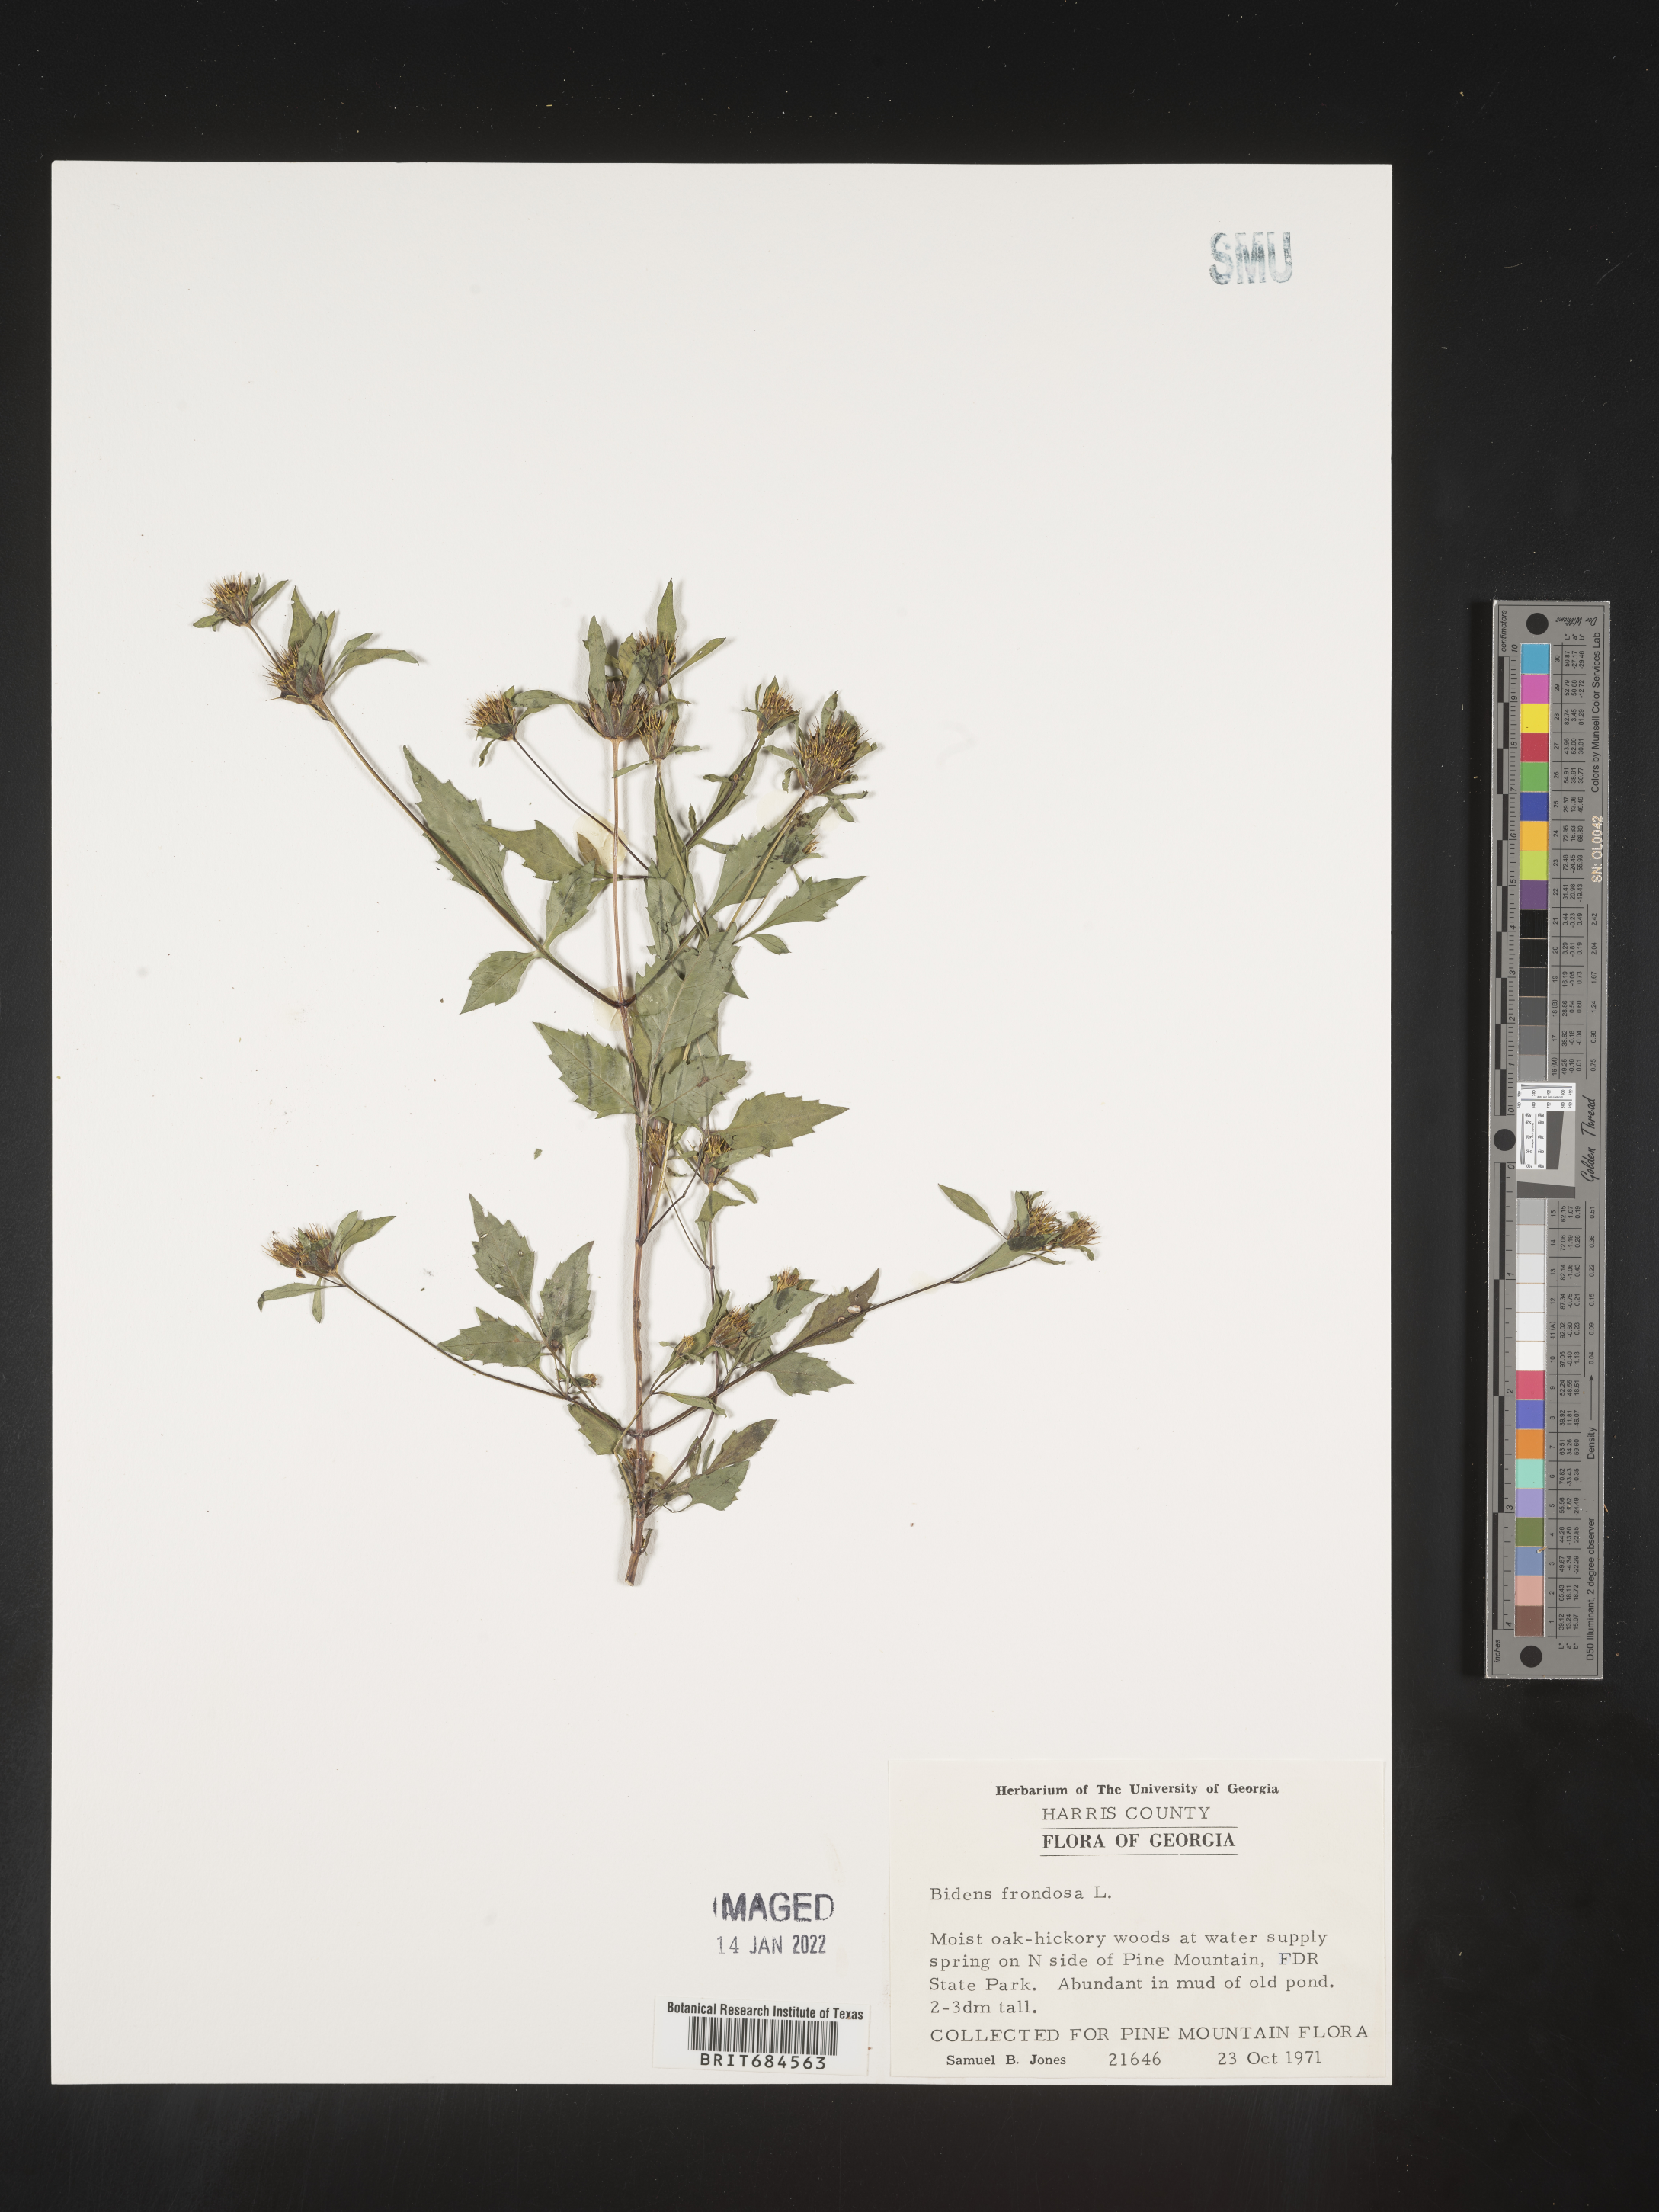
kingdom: Plantae
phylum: Tracheophyta
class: Magnoliopsida
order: Asterales
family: Asteraceae
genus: Bidens
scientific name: Bidens frondosa
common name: Beggarticks
